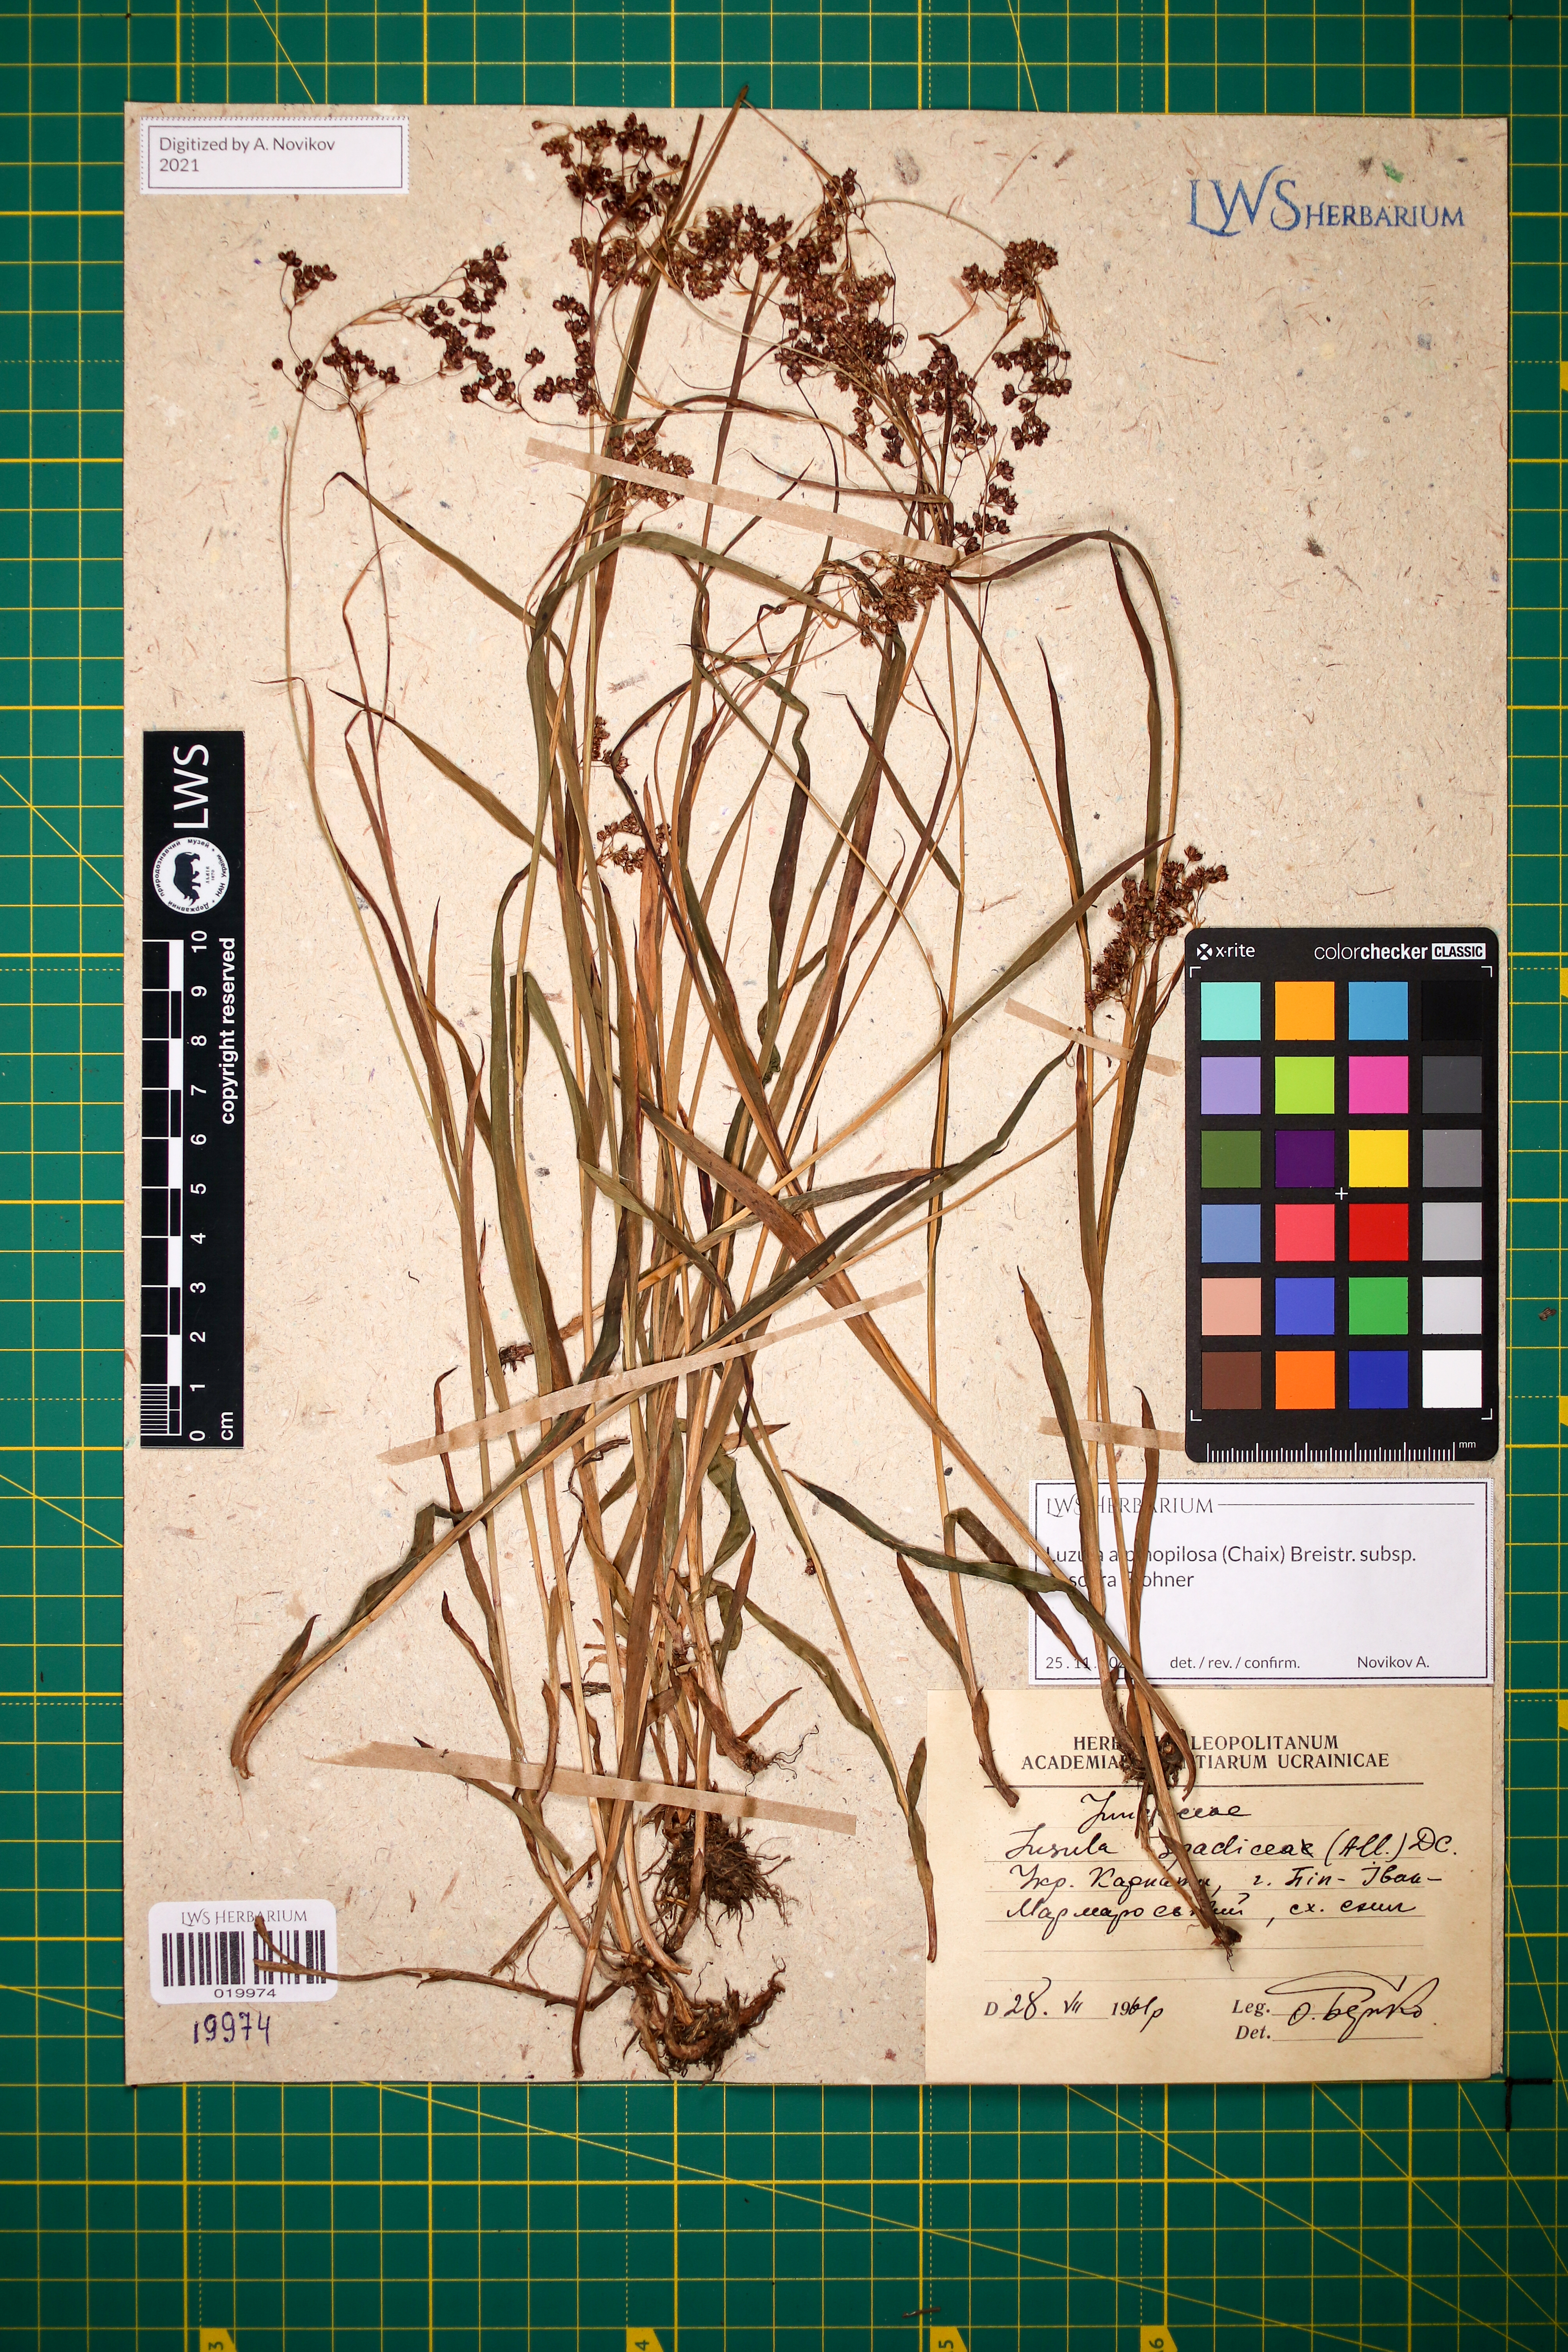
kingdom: Plantae
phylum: Tracheophyta
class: Liliopsida
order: Poales
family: Juncaceae
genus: Luzula
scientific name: Luzula alpinopilosa
